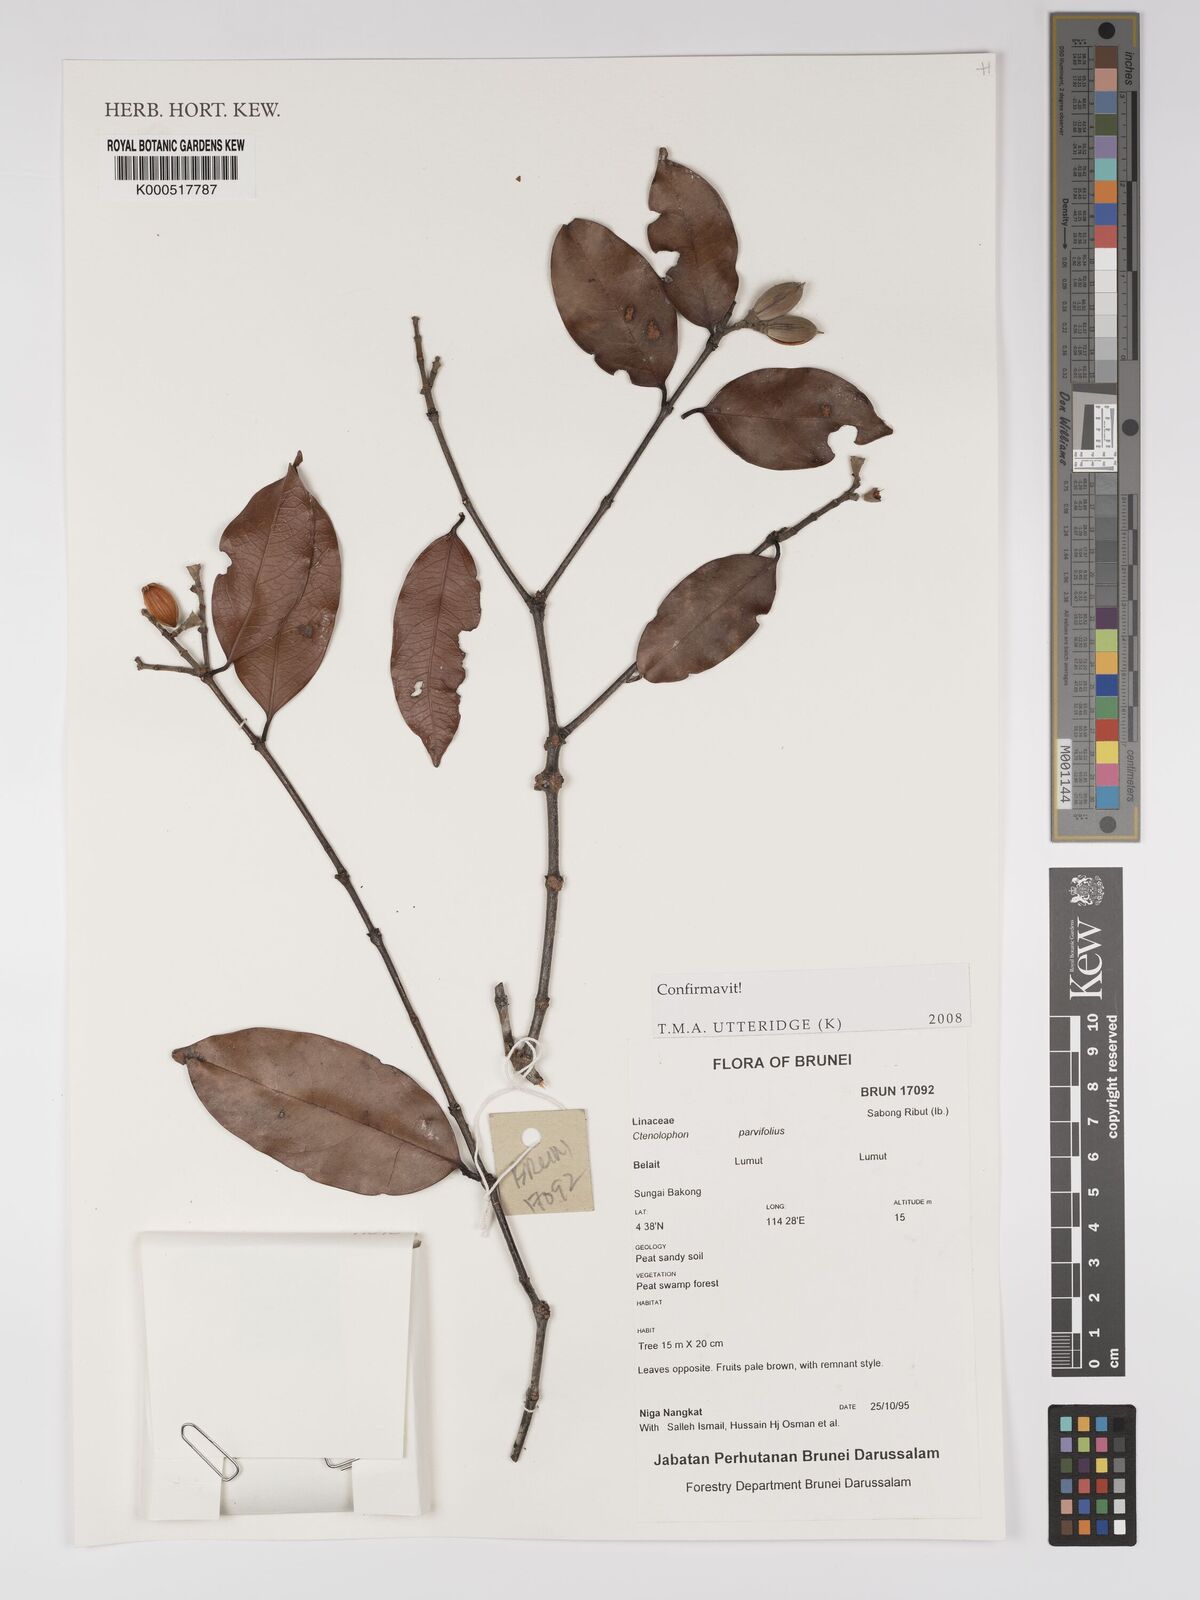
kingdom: Plantae
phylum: Tracheophyta
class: Magnoliopsida
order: Malpighiales
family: Ctenolophonaceae
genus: Ctenolophon
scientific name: Ctenolophon parvifolius
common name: Mertas
